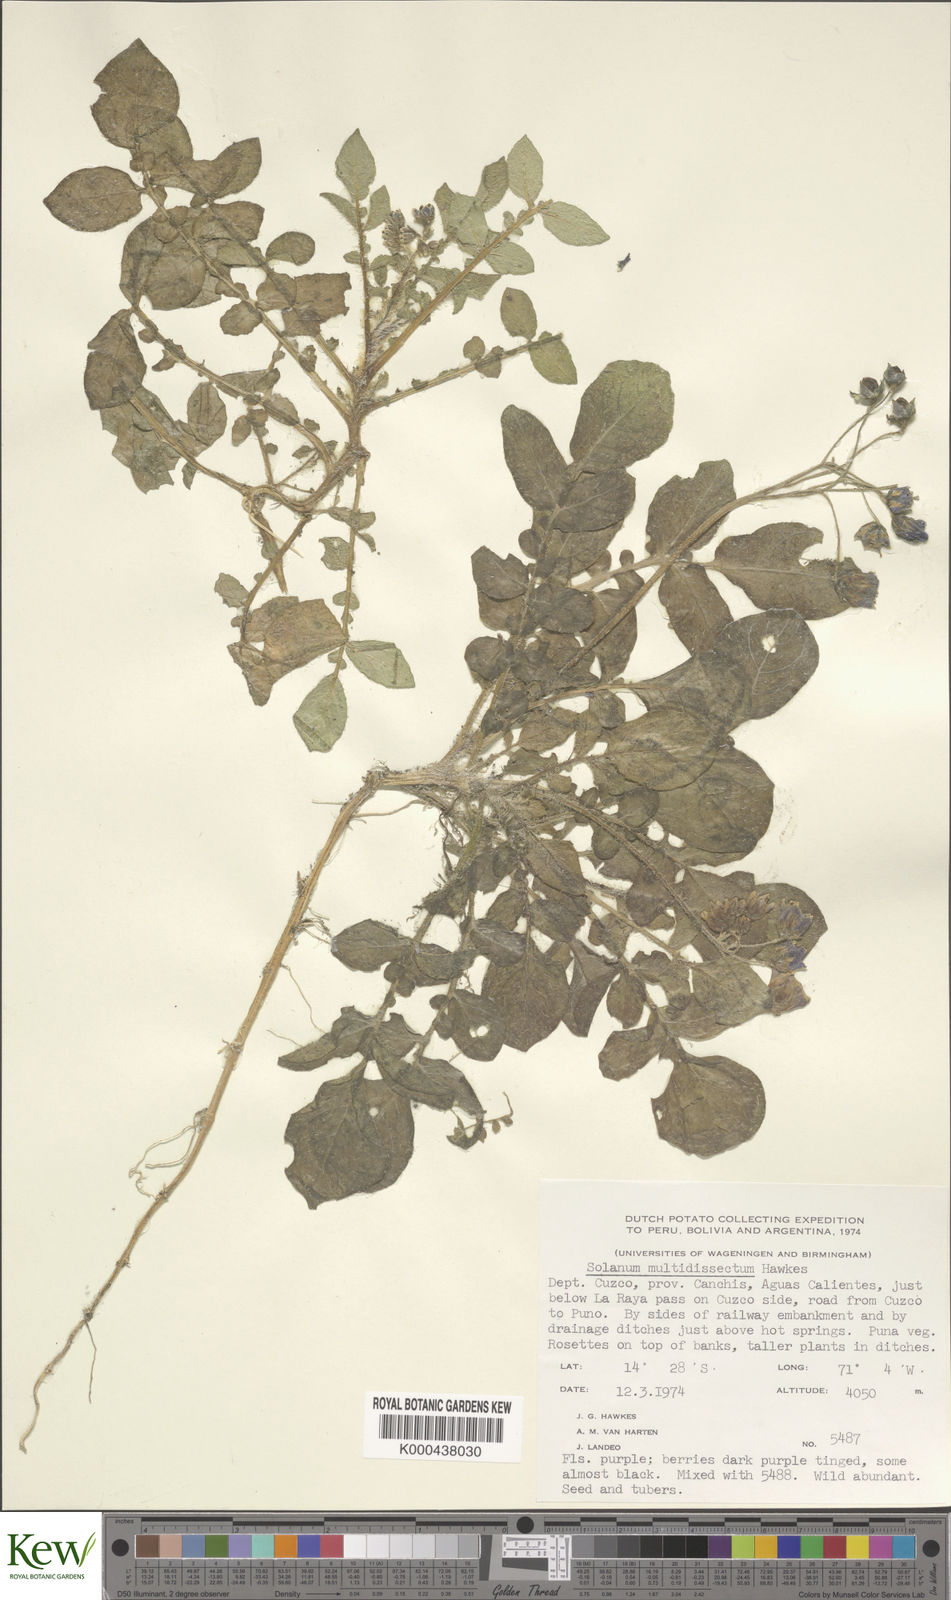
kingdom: Plantae
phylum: Tracheophyta
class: Magnoliopsida
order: Solanales
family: Solanaceae
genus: Solanum
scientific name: Solanum candolleanum
